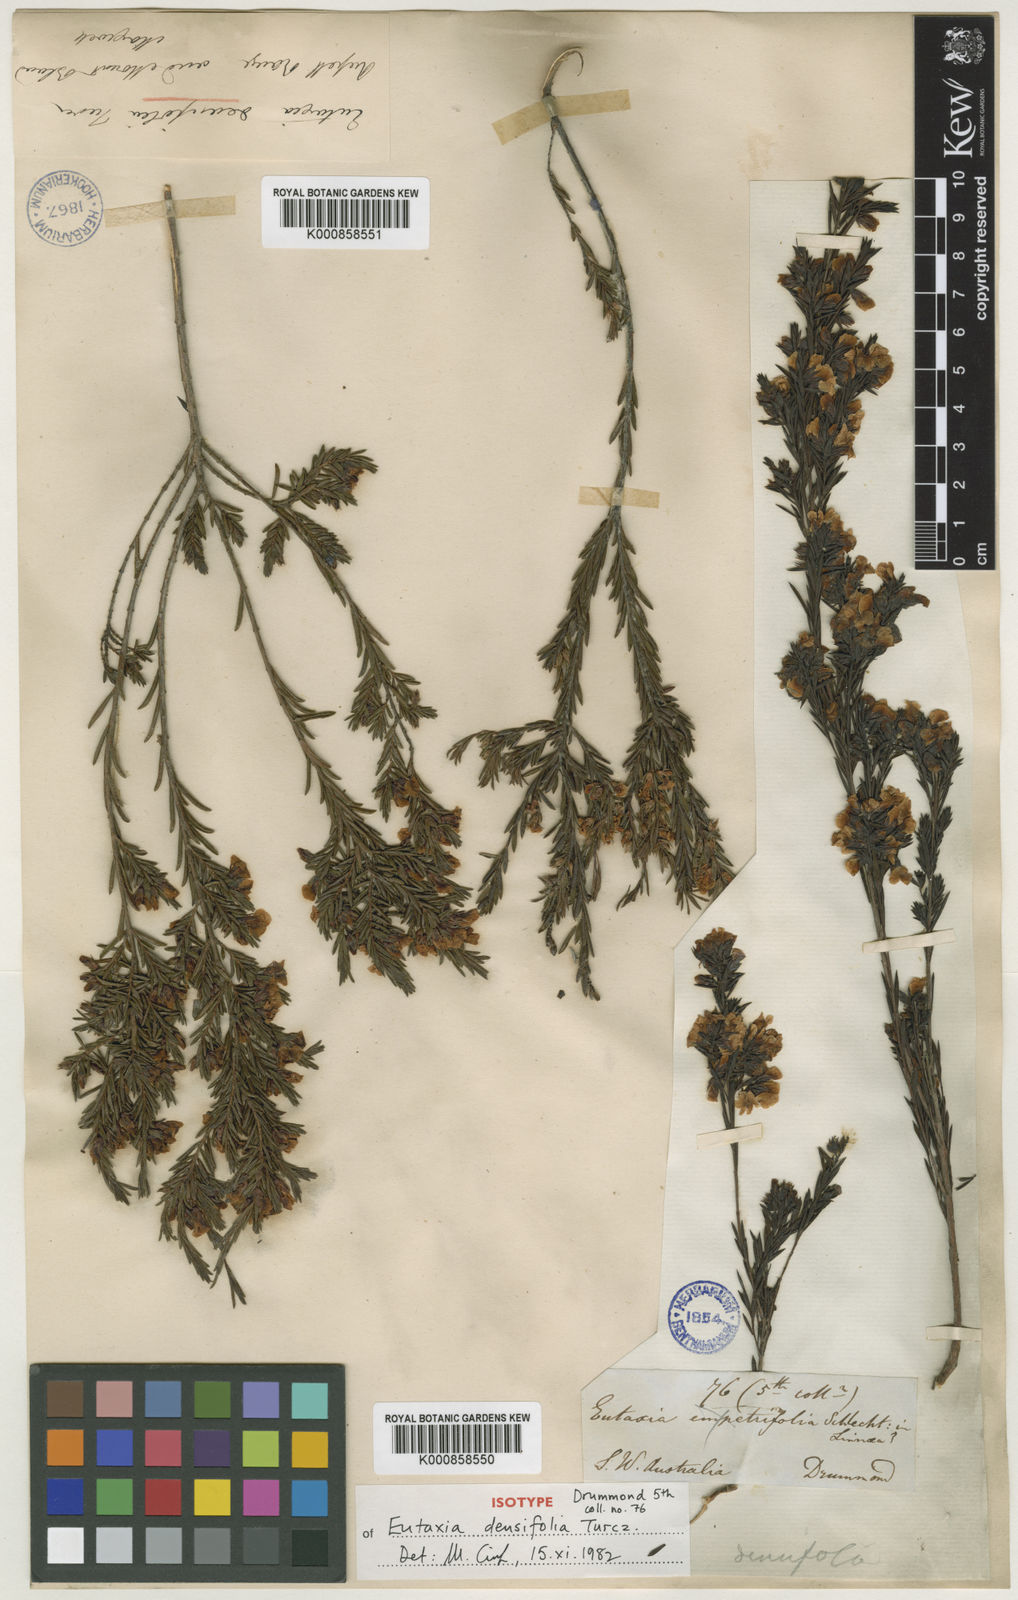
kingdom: Plantae
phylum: Tracheophyta
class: Magnoliopsida
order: Fabales
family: Fabaceae
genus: Eutaxia
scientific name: Eutaxia parvifolia
